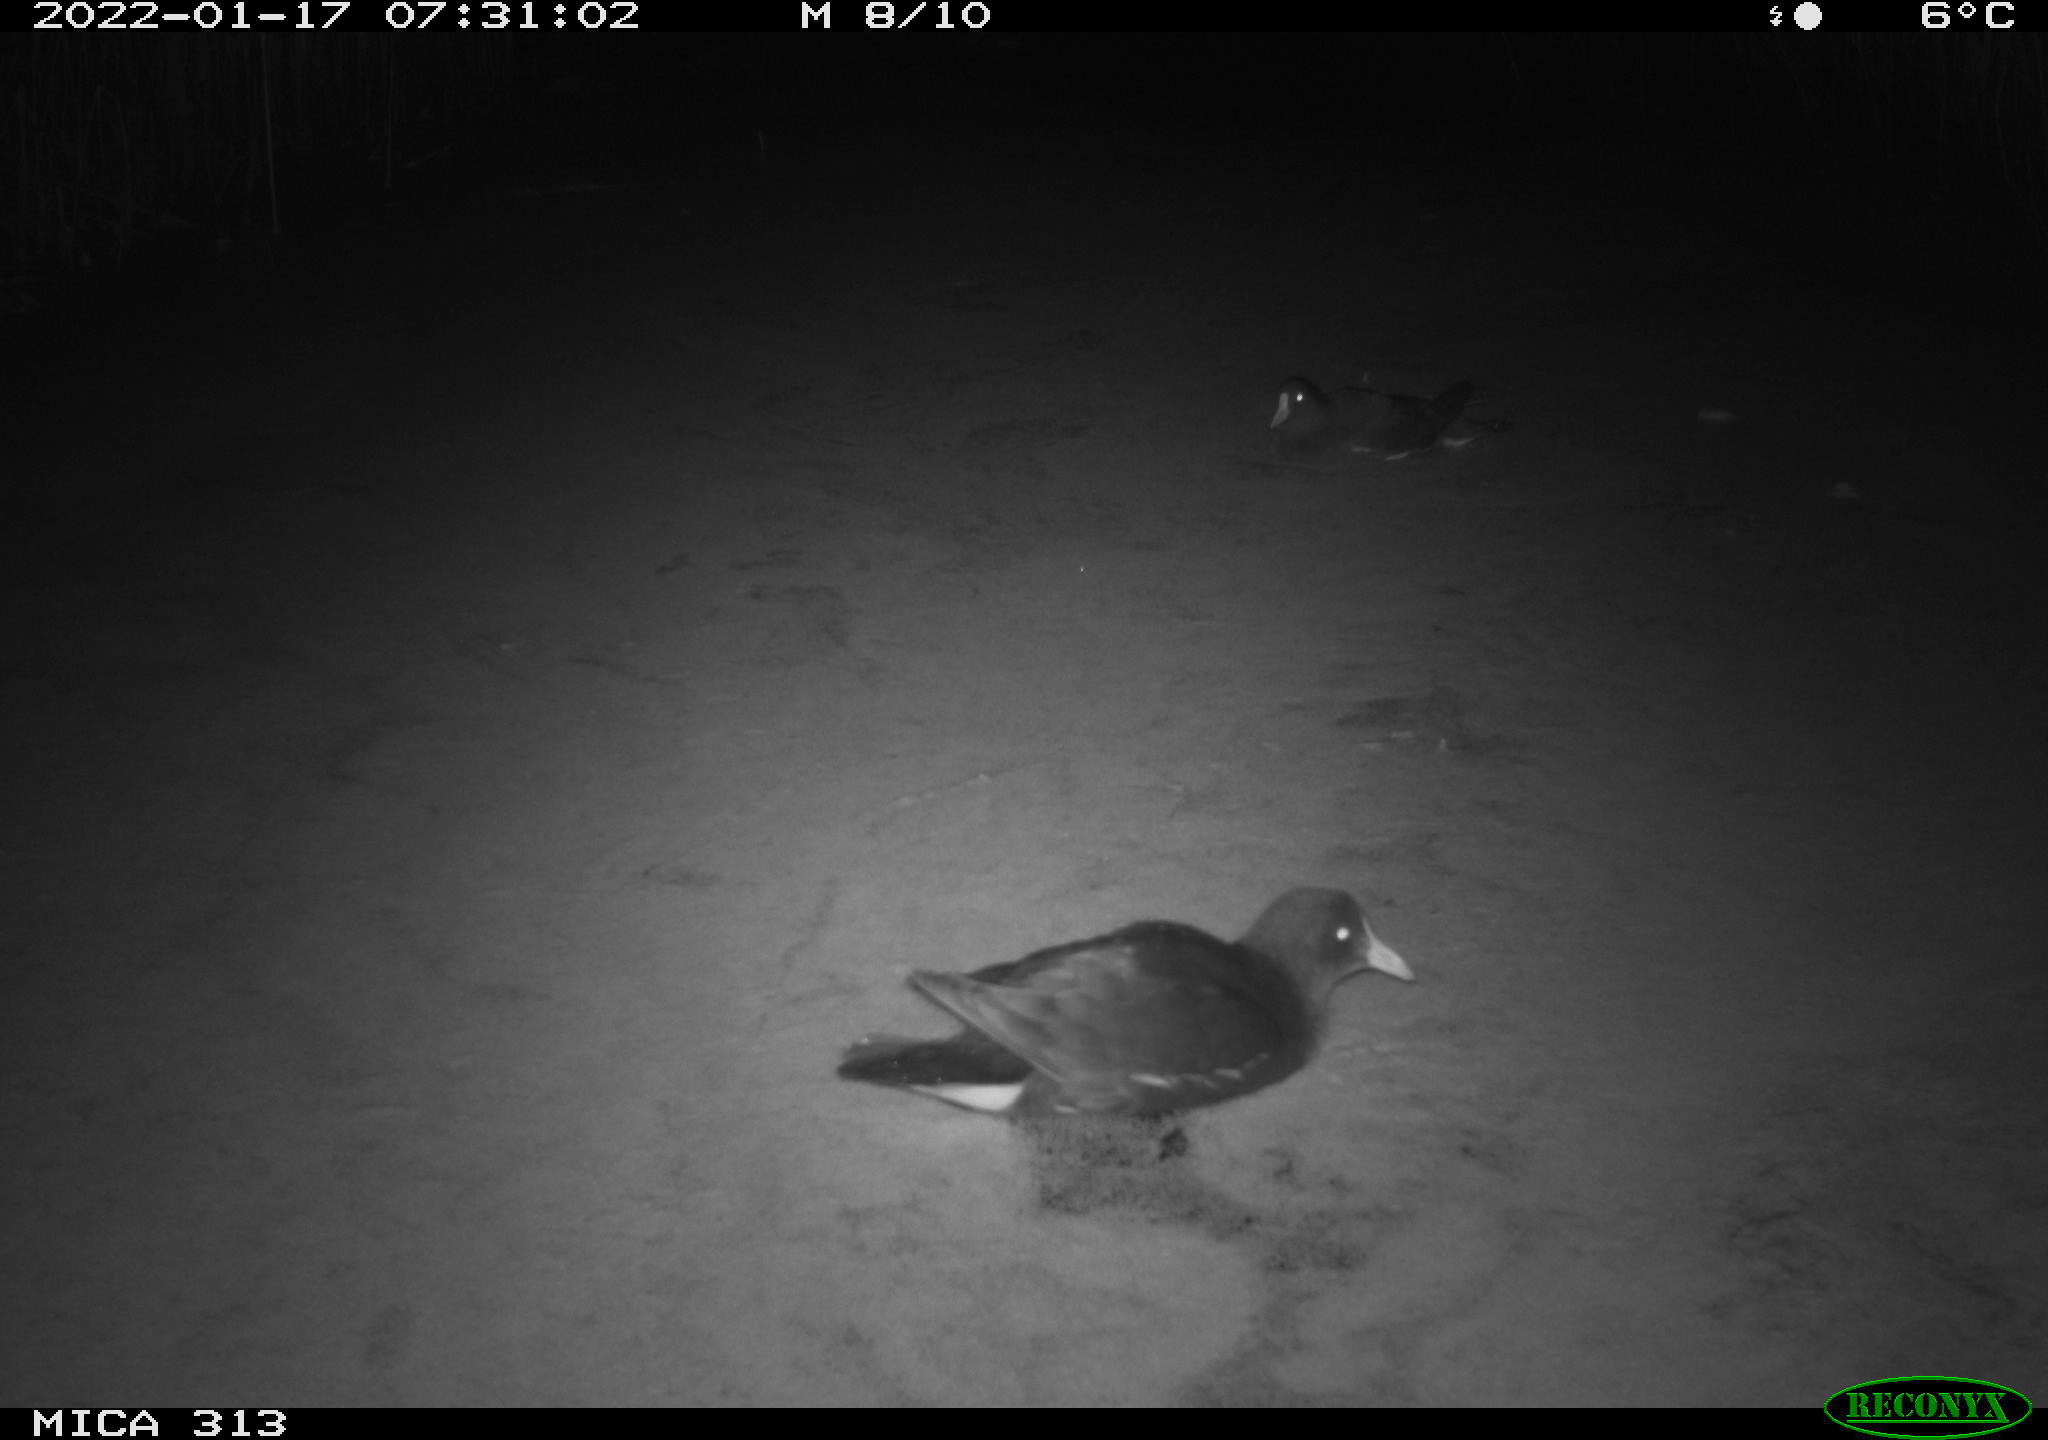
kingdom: Animalia
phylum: Chordata
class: Aves
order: Gruiformes
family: Rallidae
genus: Fulica
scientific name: Fulica atra
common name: Eurasian coot
